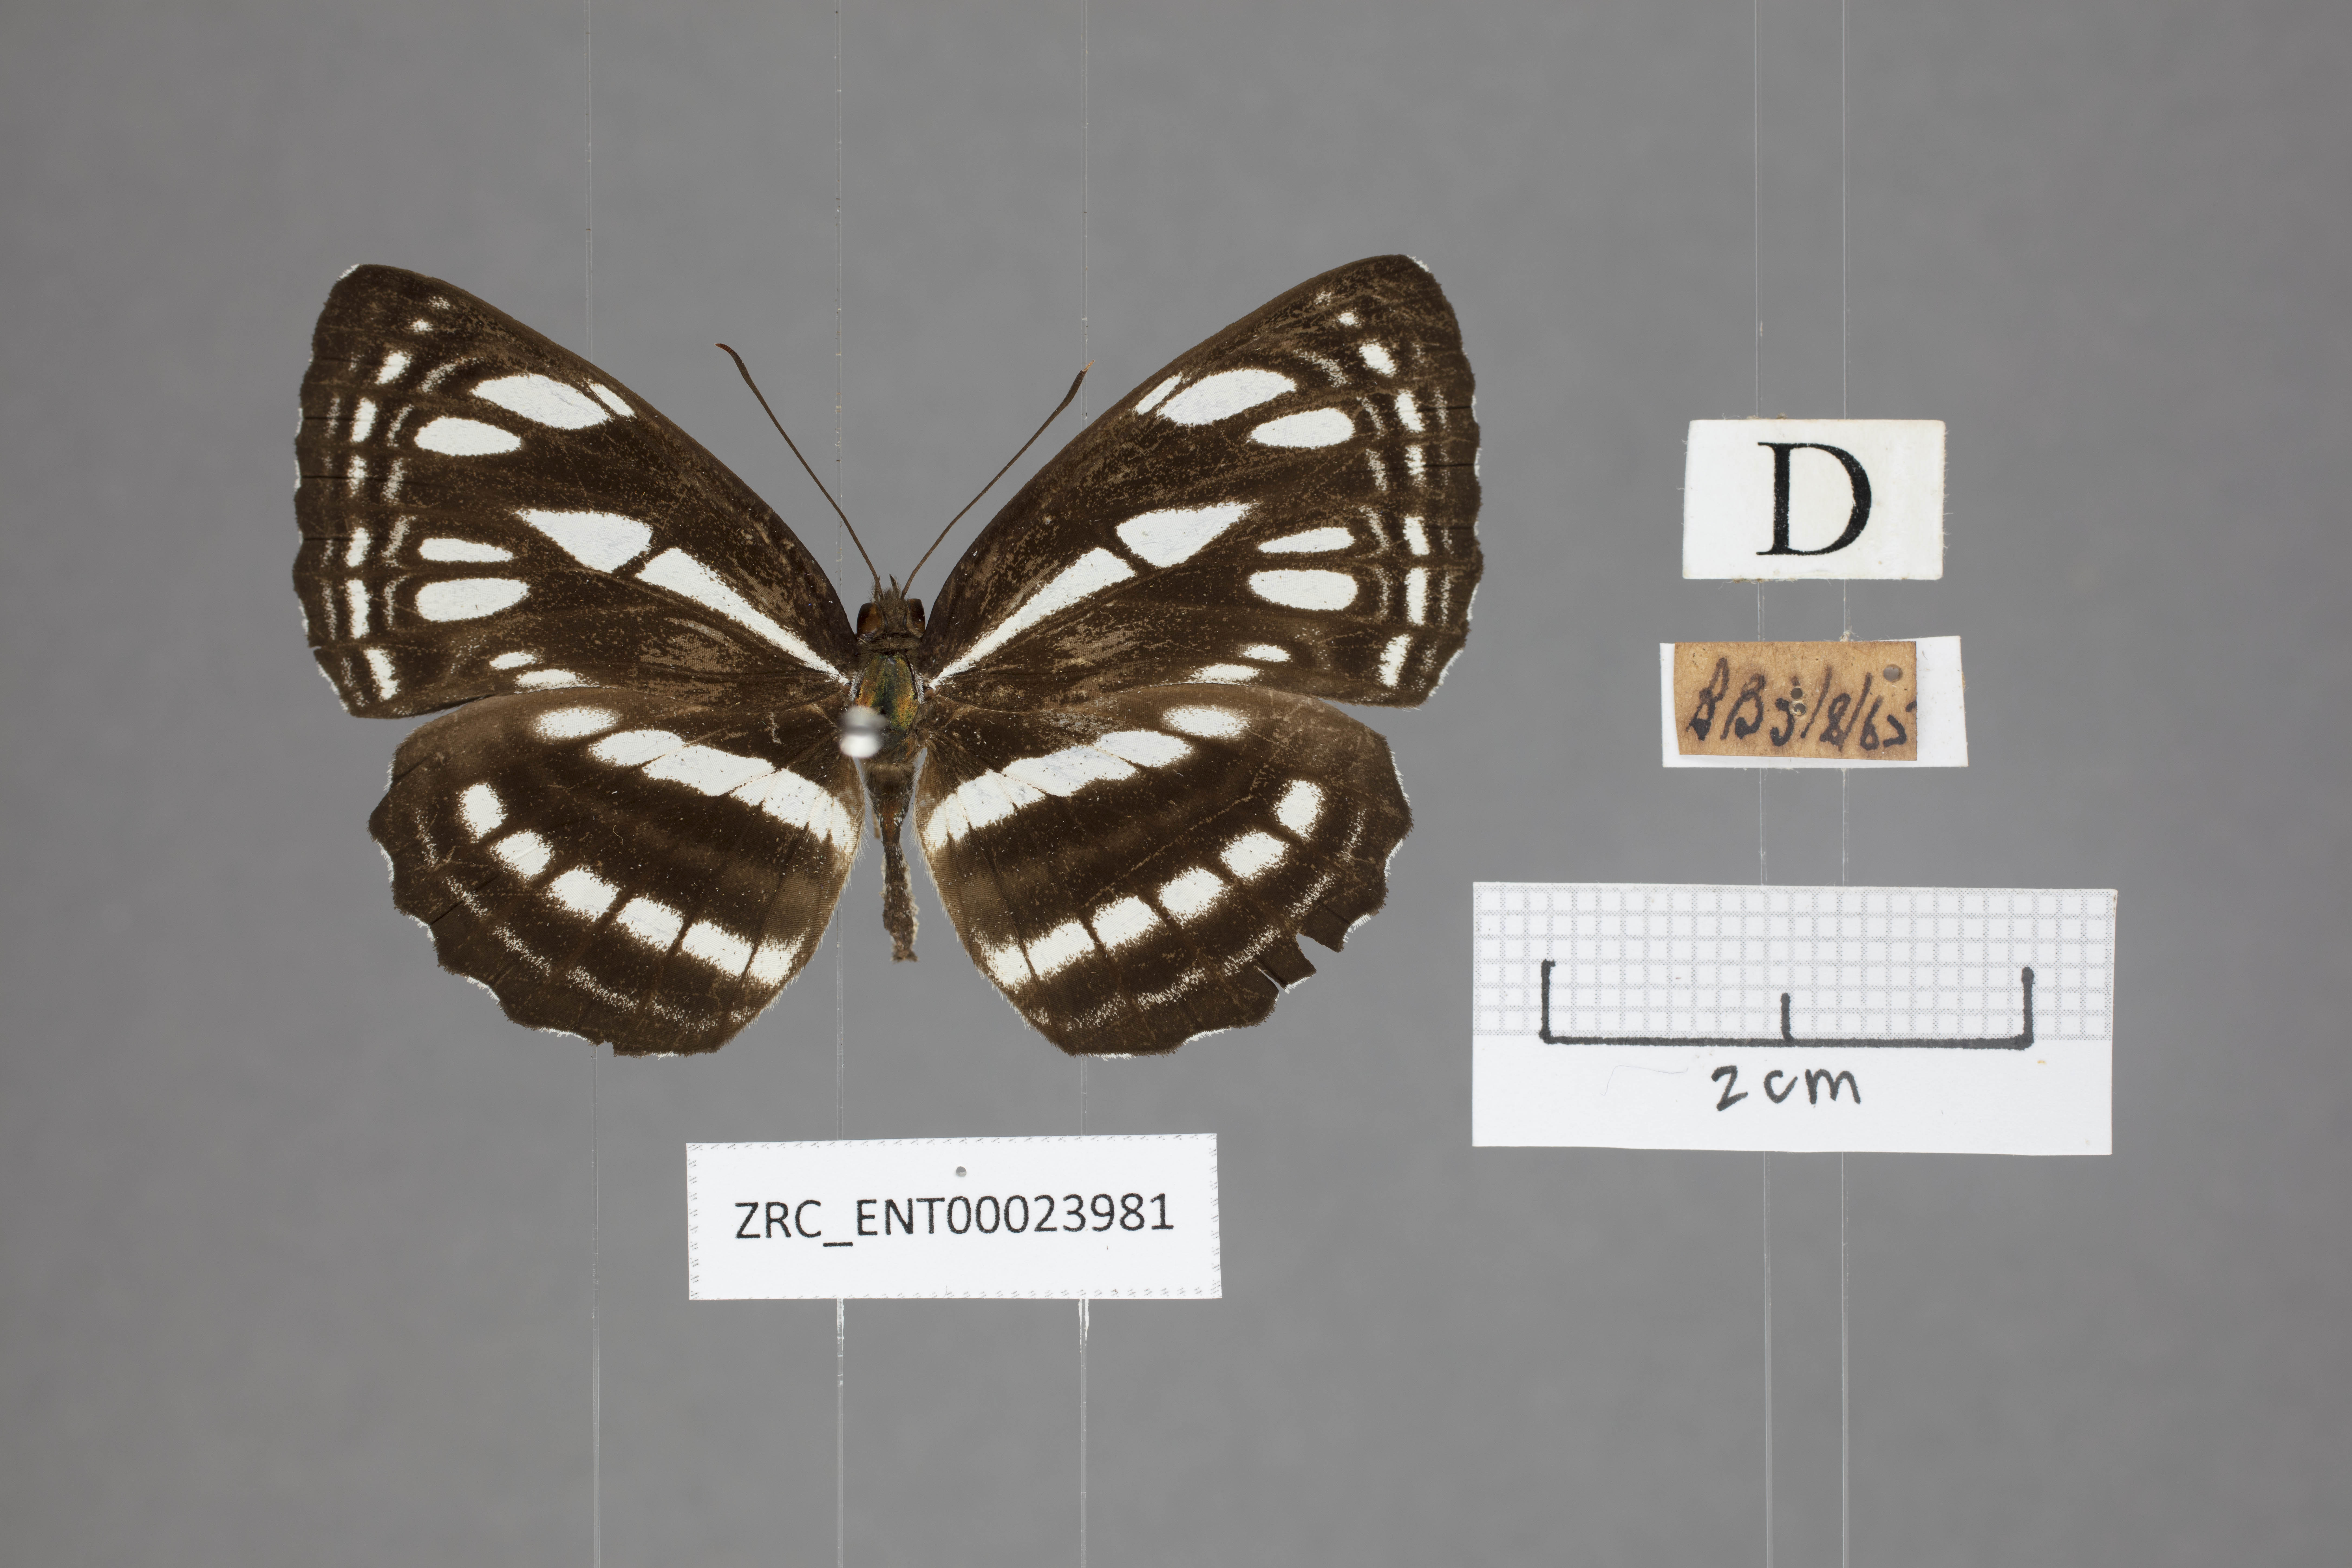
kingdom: Animalia
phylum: Arthropoda
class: Insecta
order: Lepidoptera
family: Nymphalidae
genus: Neptis
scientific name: Neptis duryodana
